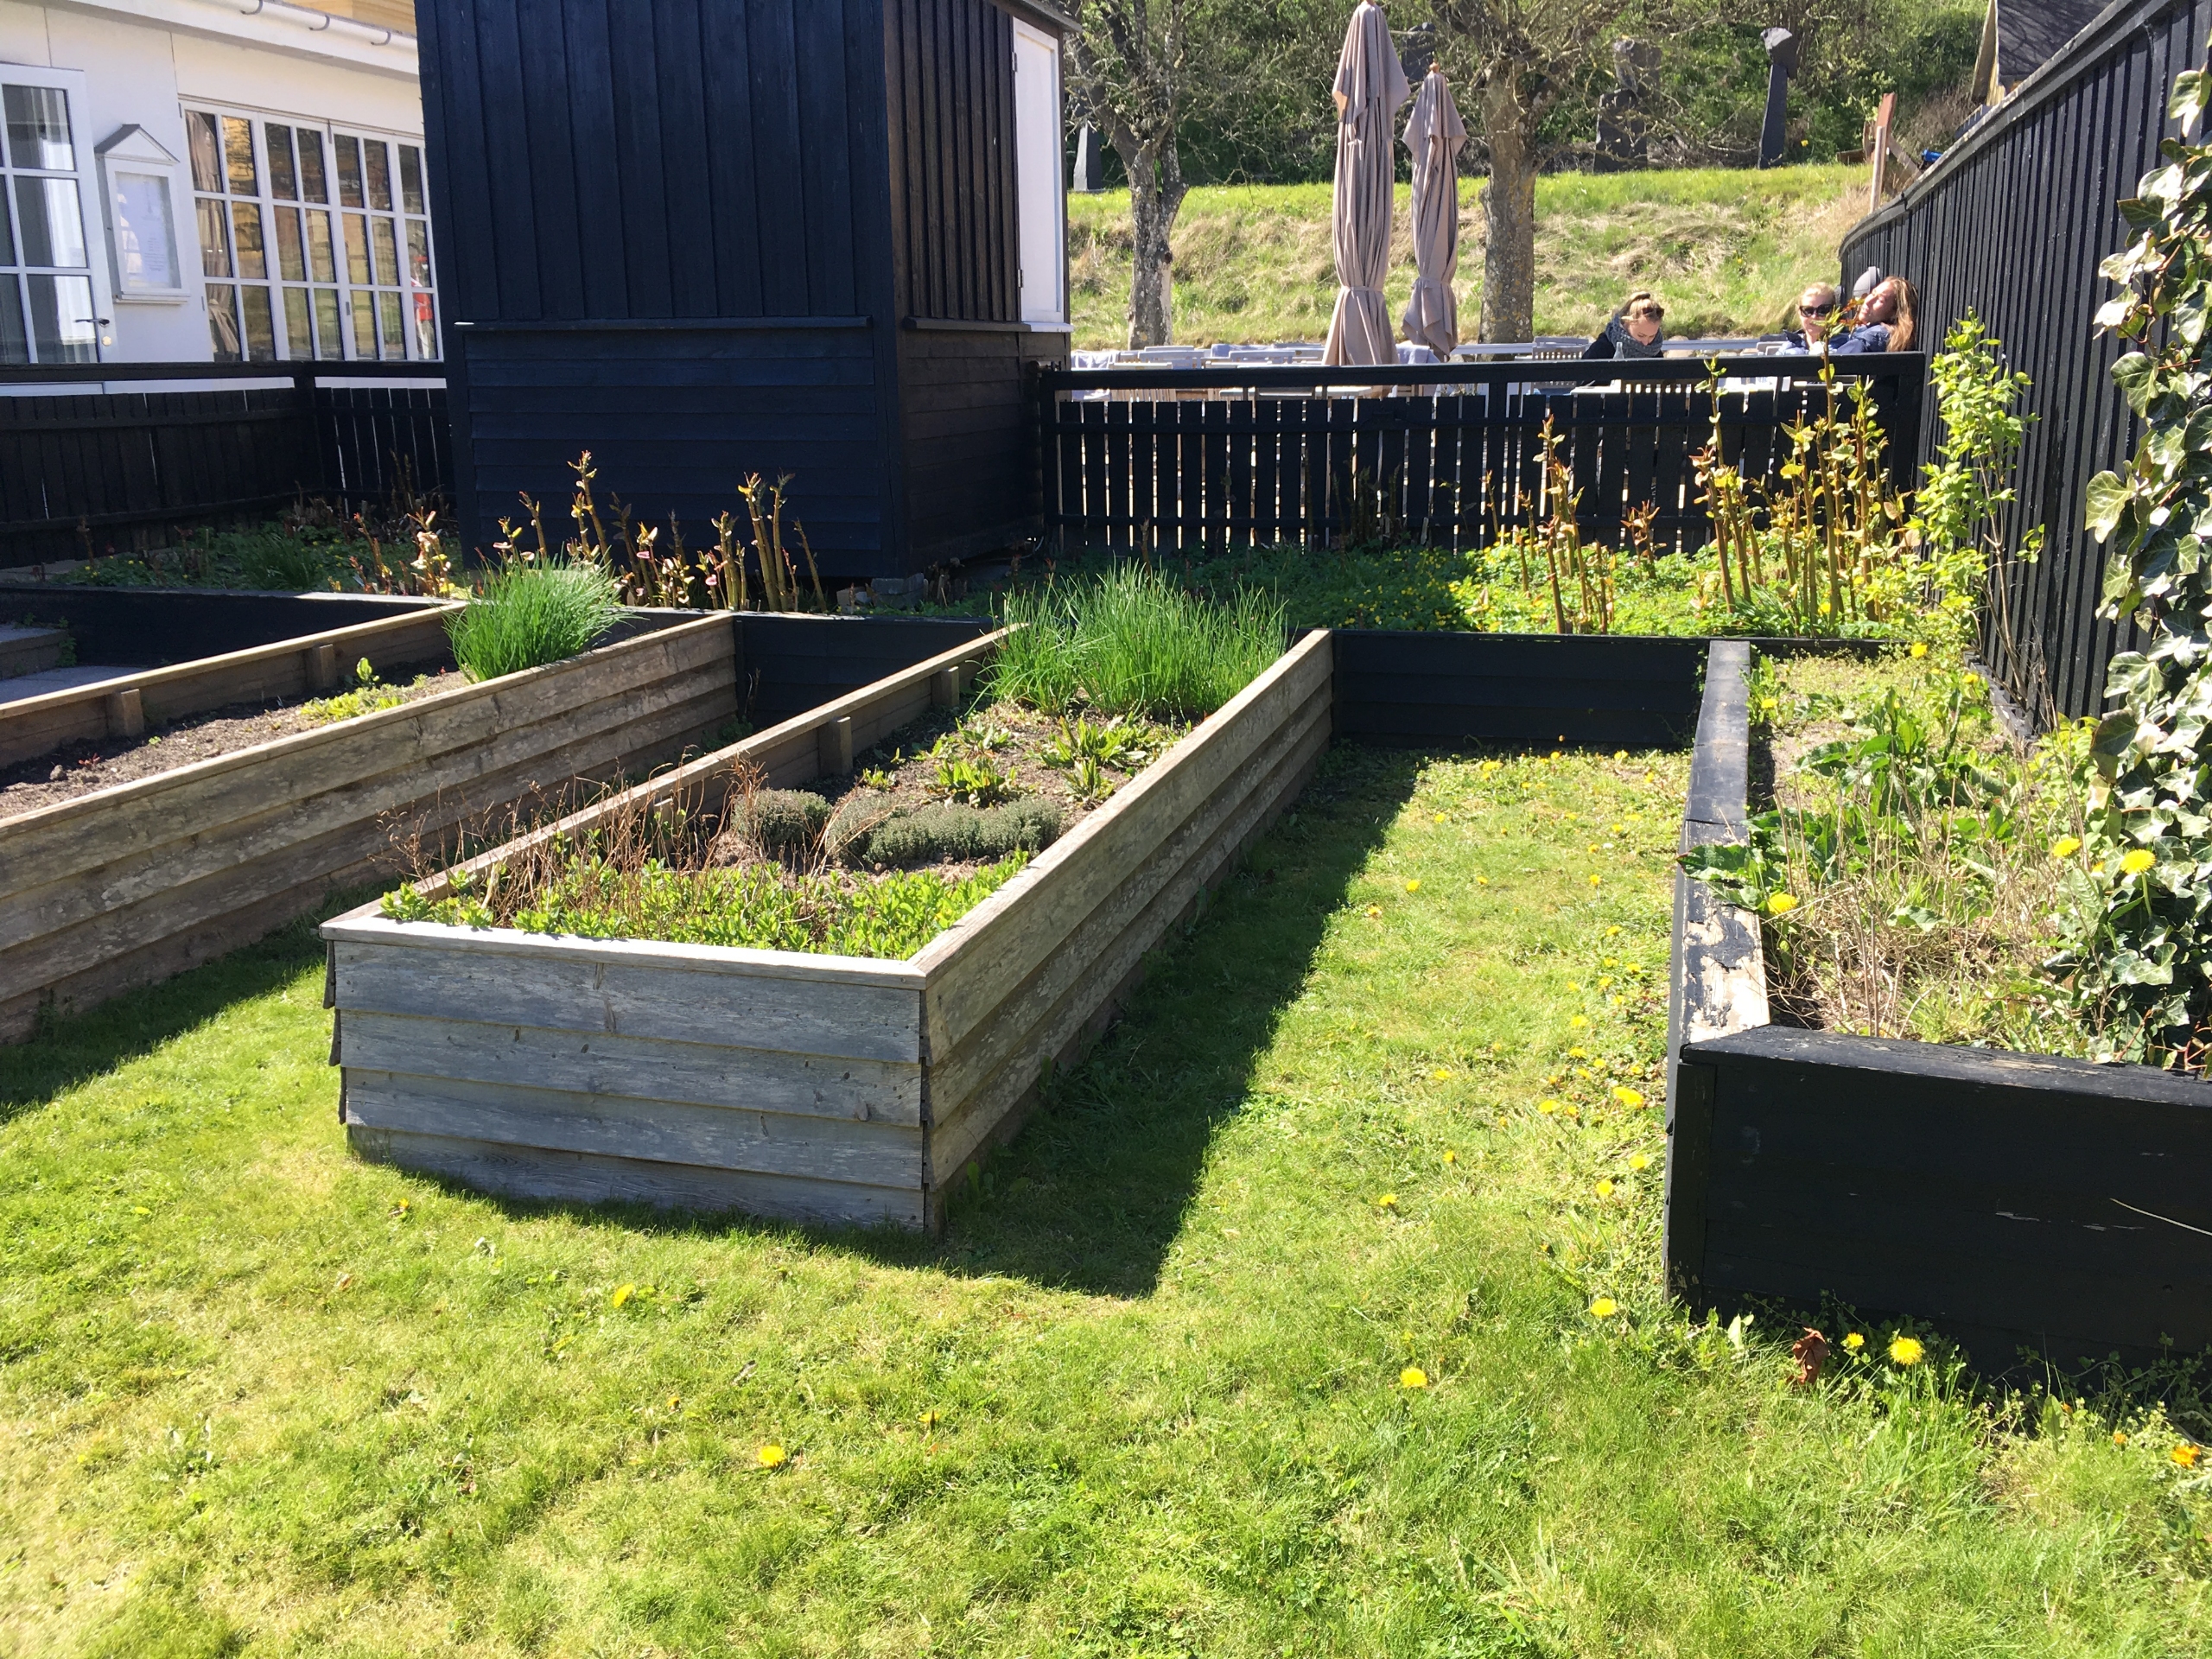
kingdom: Plantae
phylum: Tracheophyta
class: Magnoliopsida
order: Caryophyllales
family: Polygonaceae
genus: Reynoutria
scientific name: Reynoutria japonica
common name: Japan-pileurt
